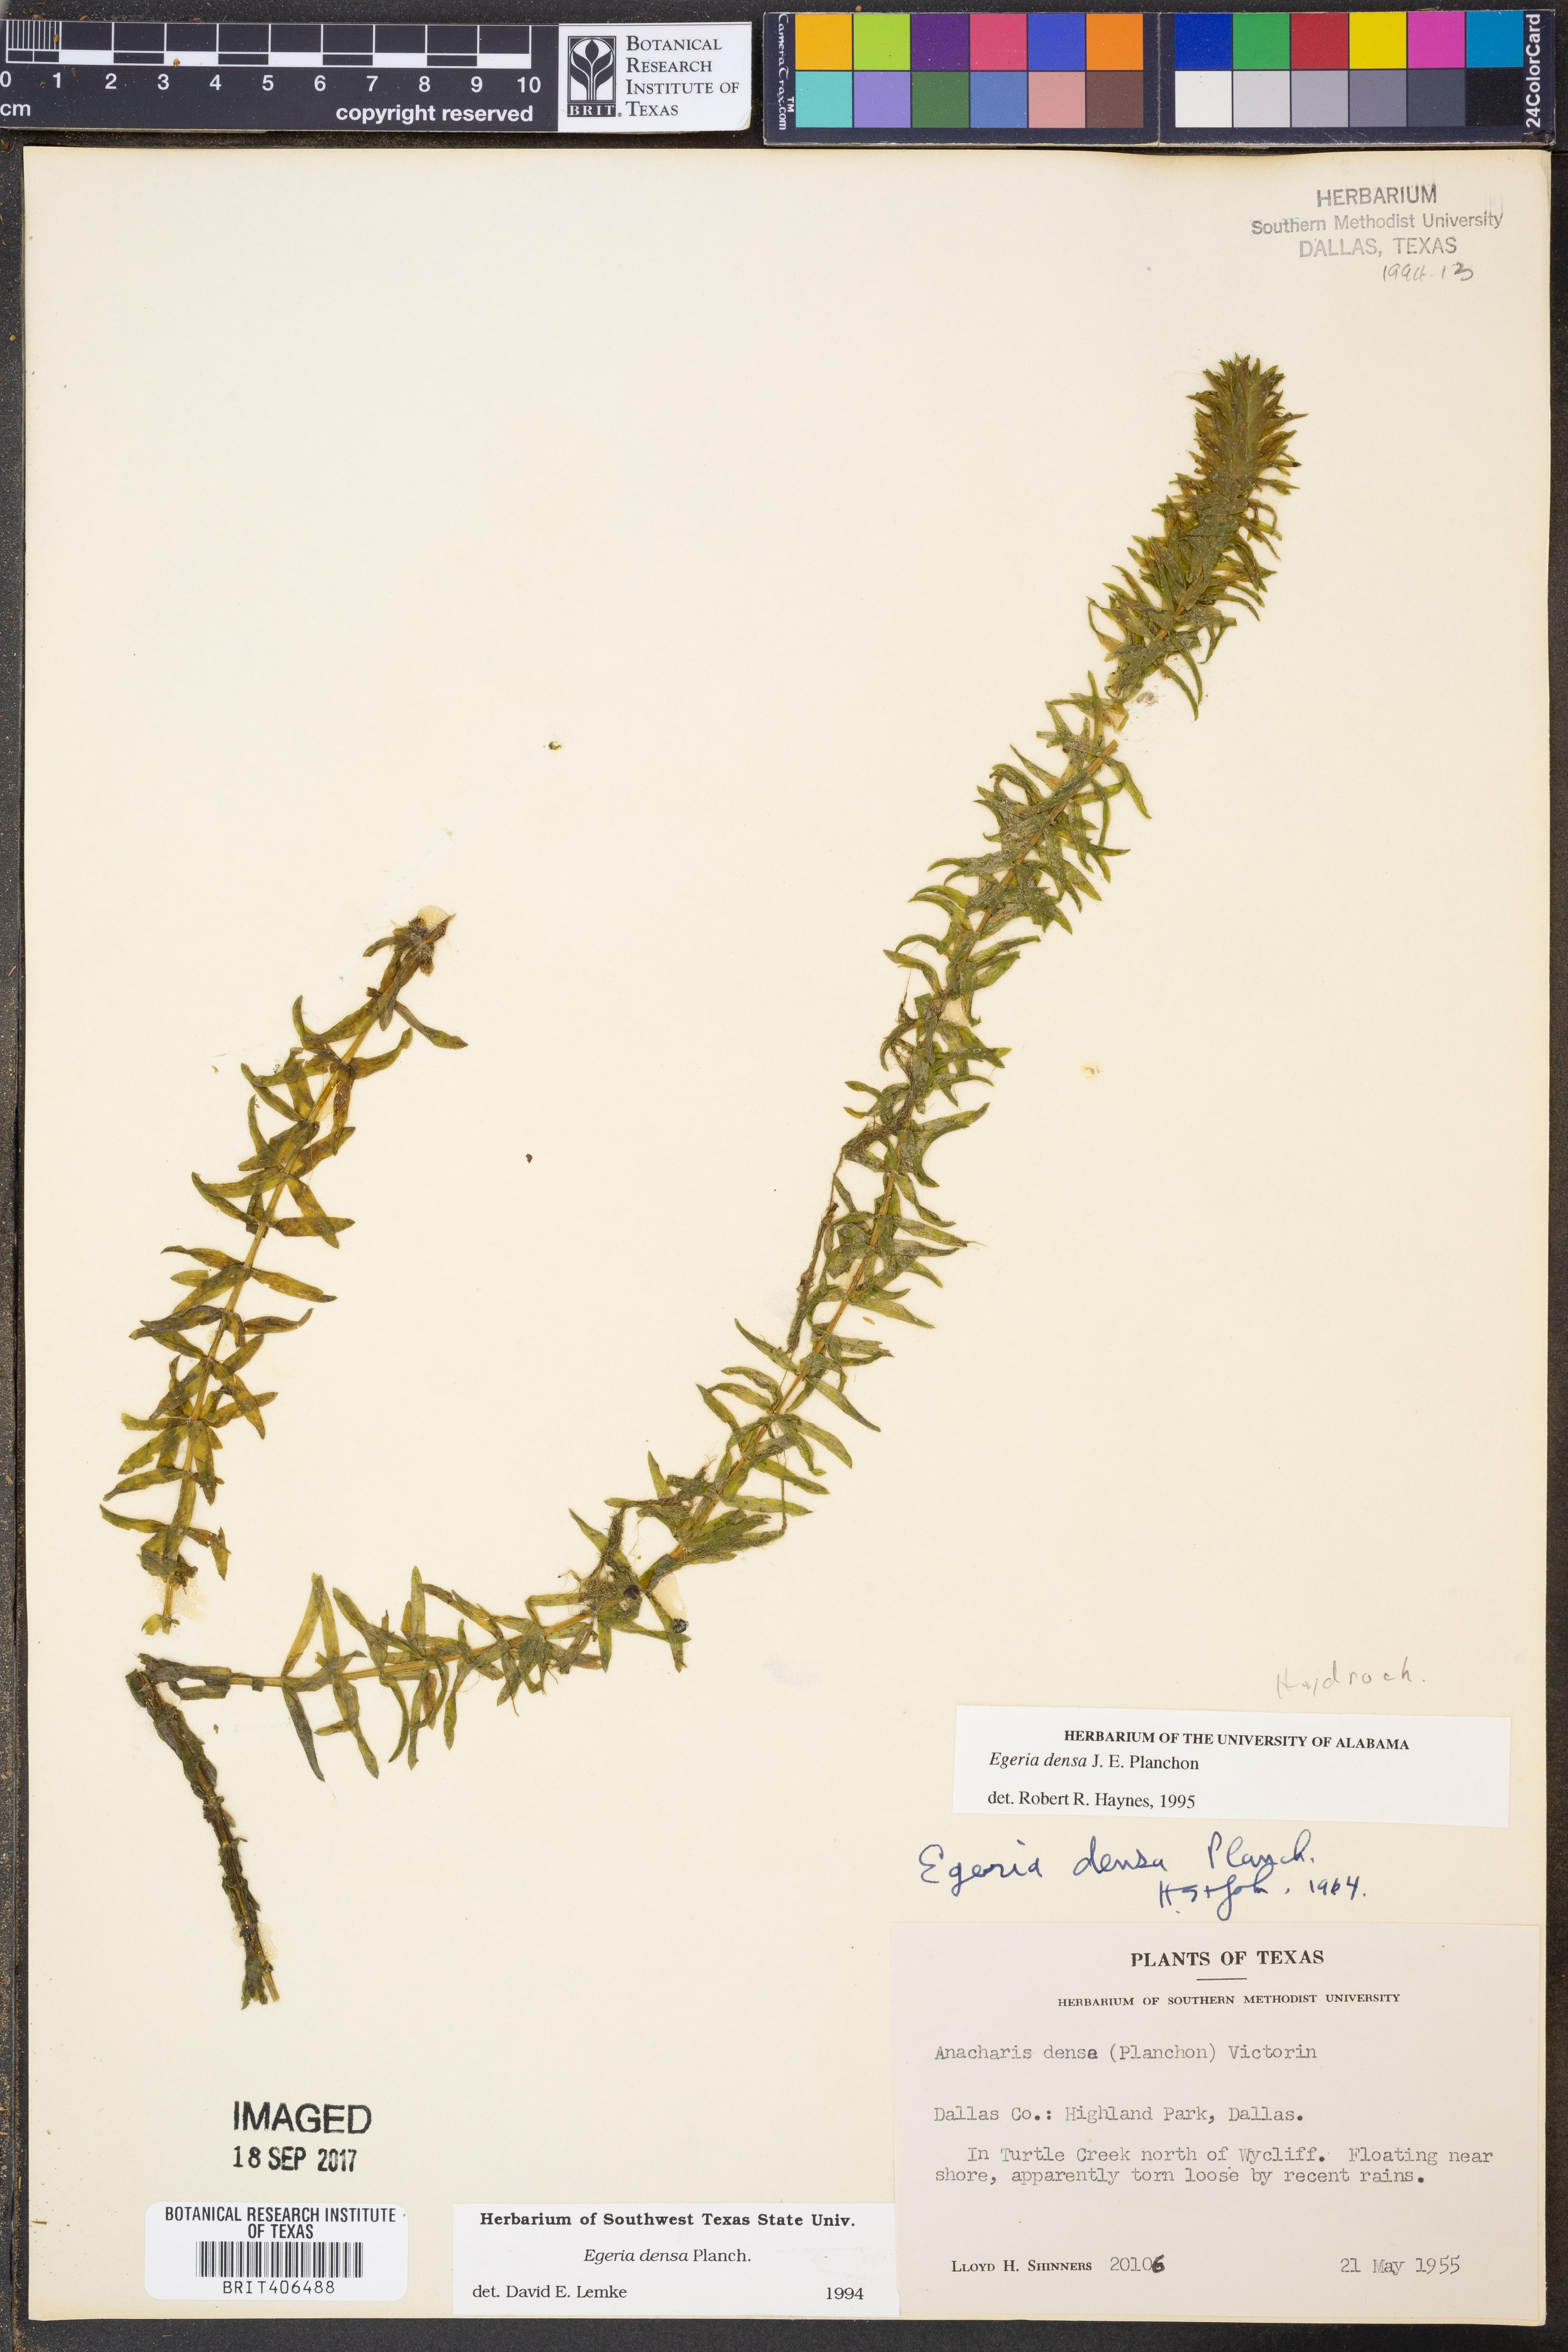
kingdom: Plantae
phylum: Tracheophyta
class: Liliopsida
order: Alismatales
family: Hydrocharitaceae
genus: Elodea
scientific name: Elodea densa
